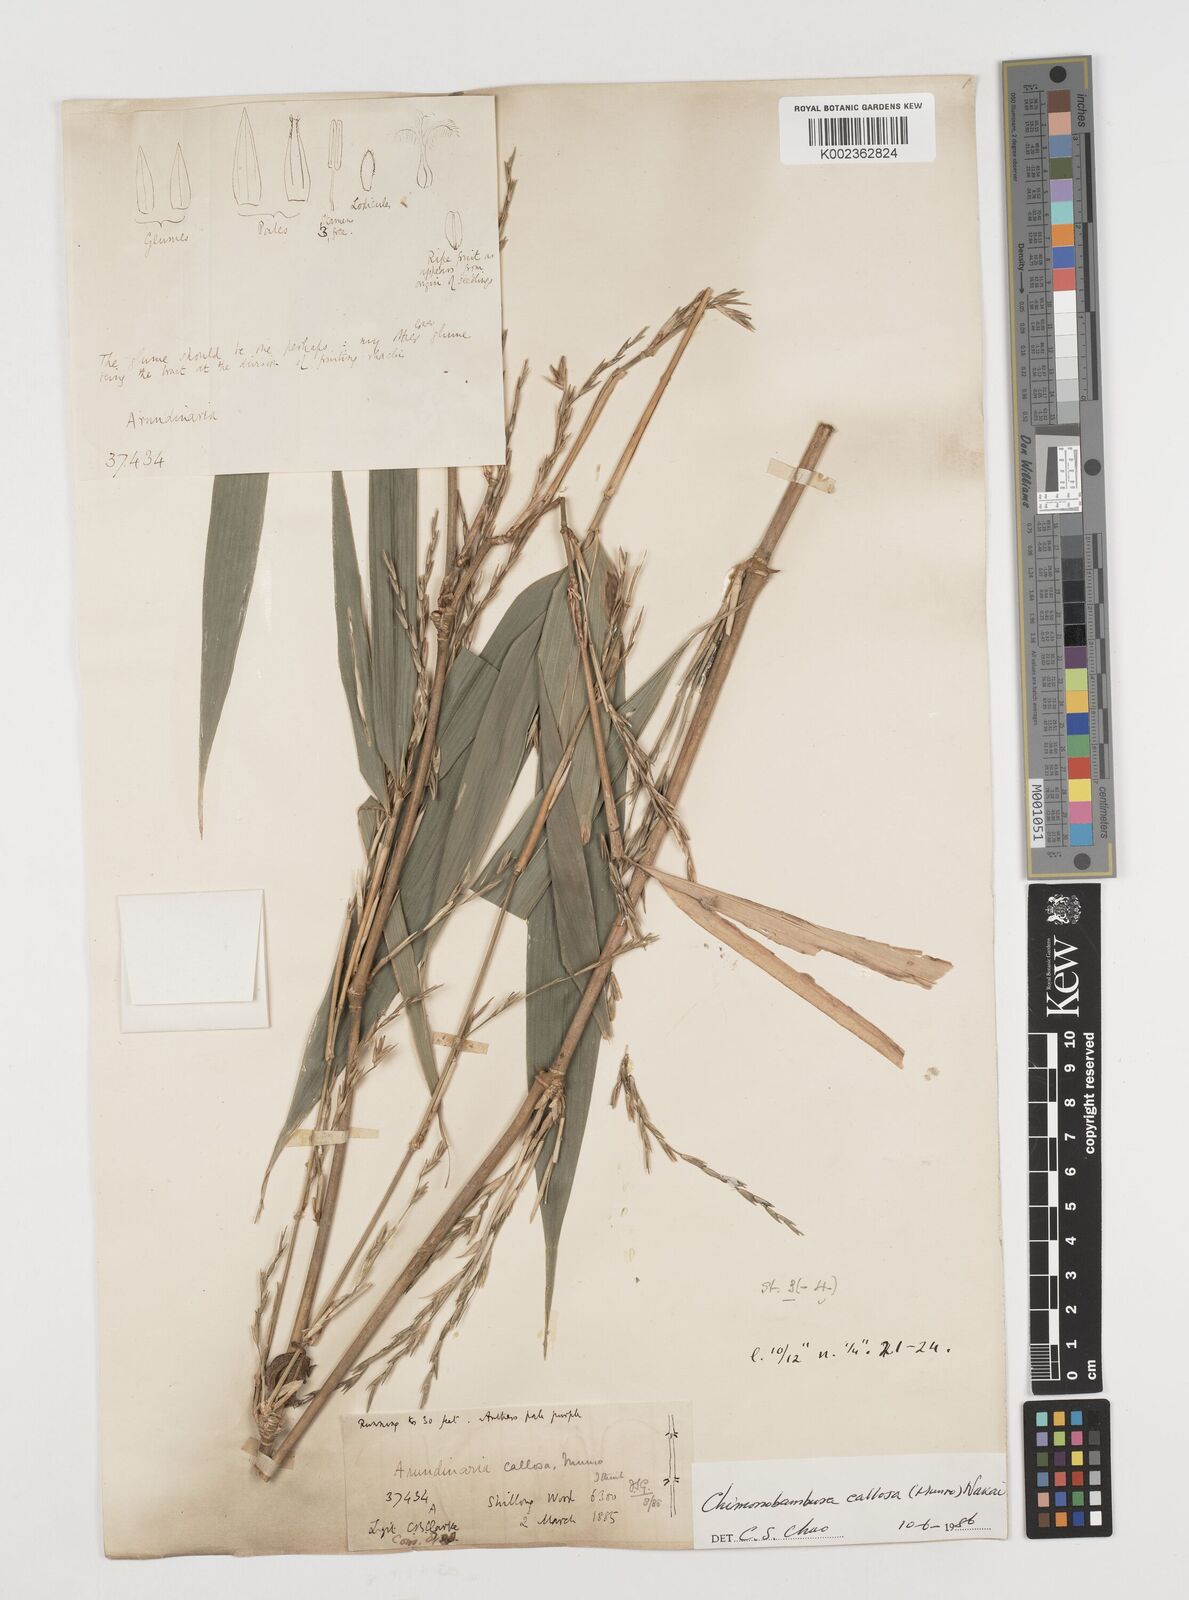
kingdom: Plantae
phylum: Tracheophyta
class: Liliopsida
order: Poales
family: Poaceae
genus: Chimonobambusa
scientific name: Chimonobambusa callosa
